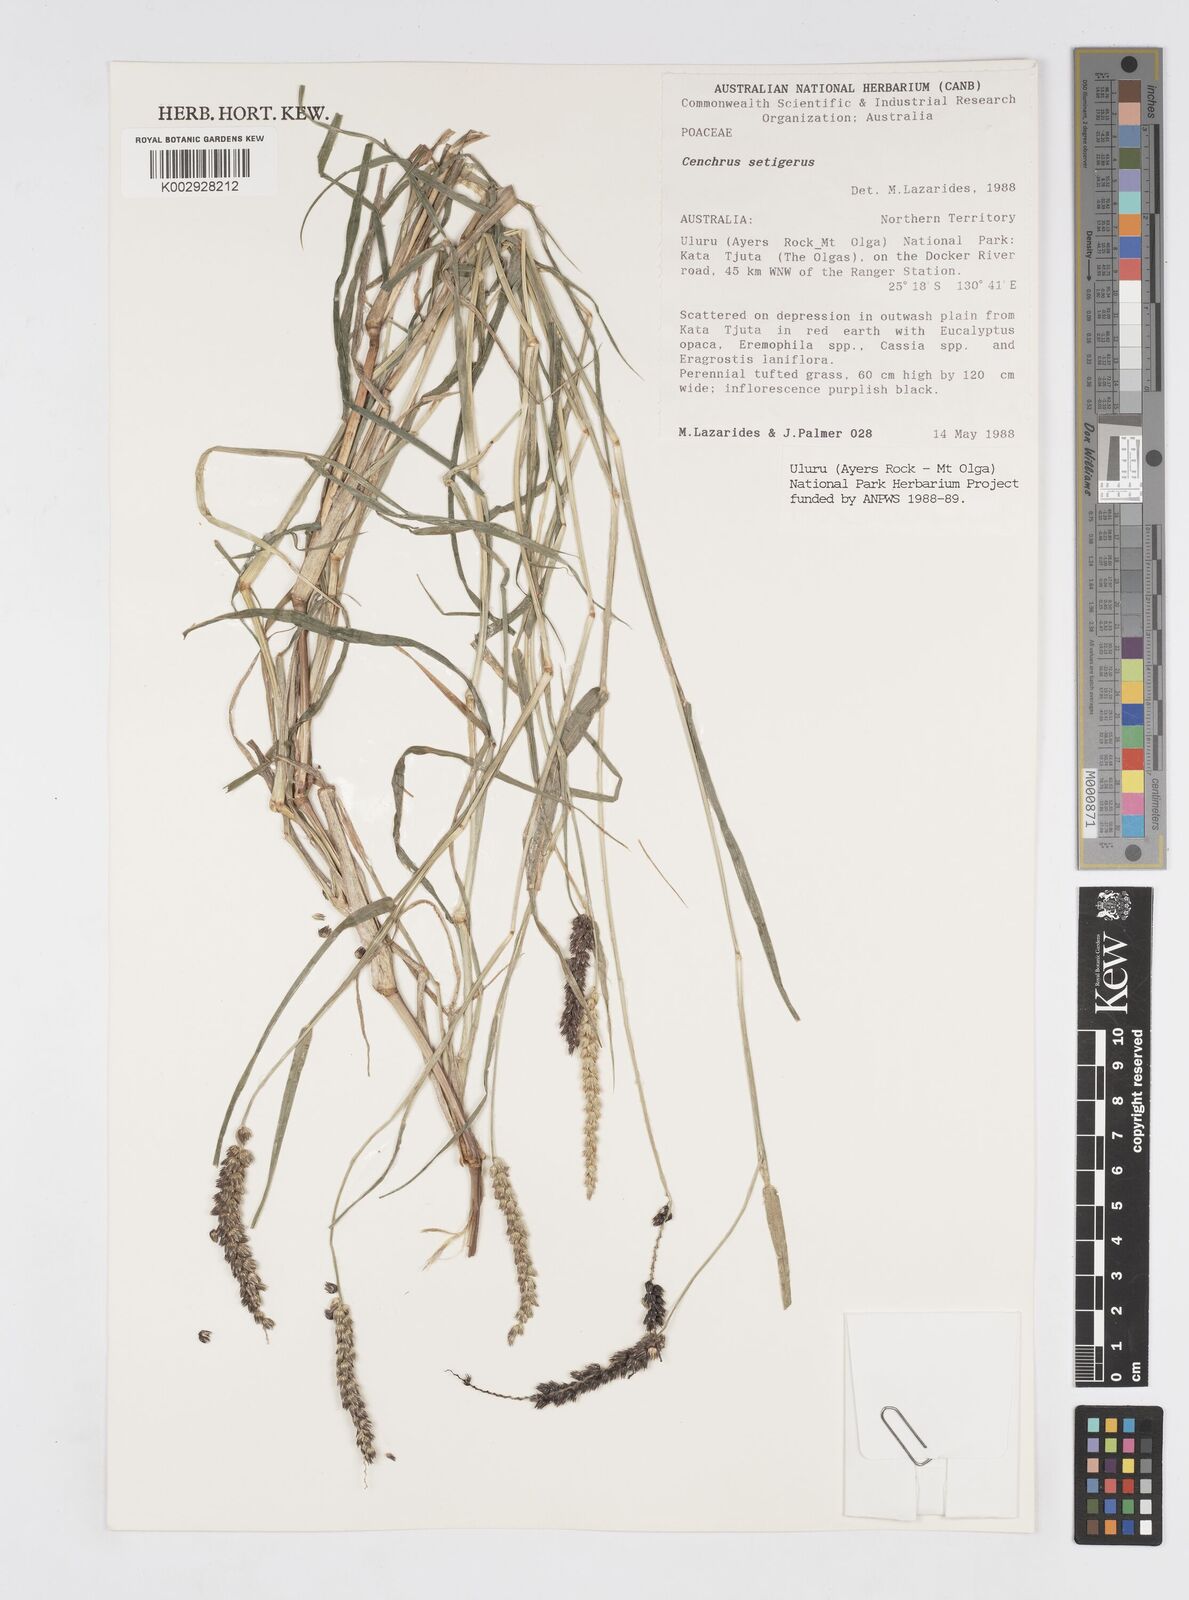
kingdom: Plantae
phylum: Tracheophyta
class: Liliopsida
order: Poales
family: Poaceae
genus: Cenchrus
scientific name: Cenchrus setigerus
